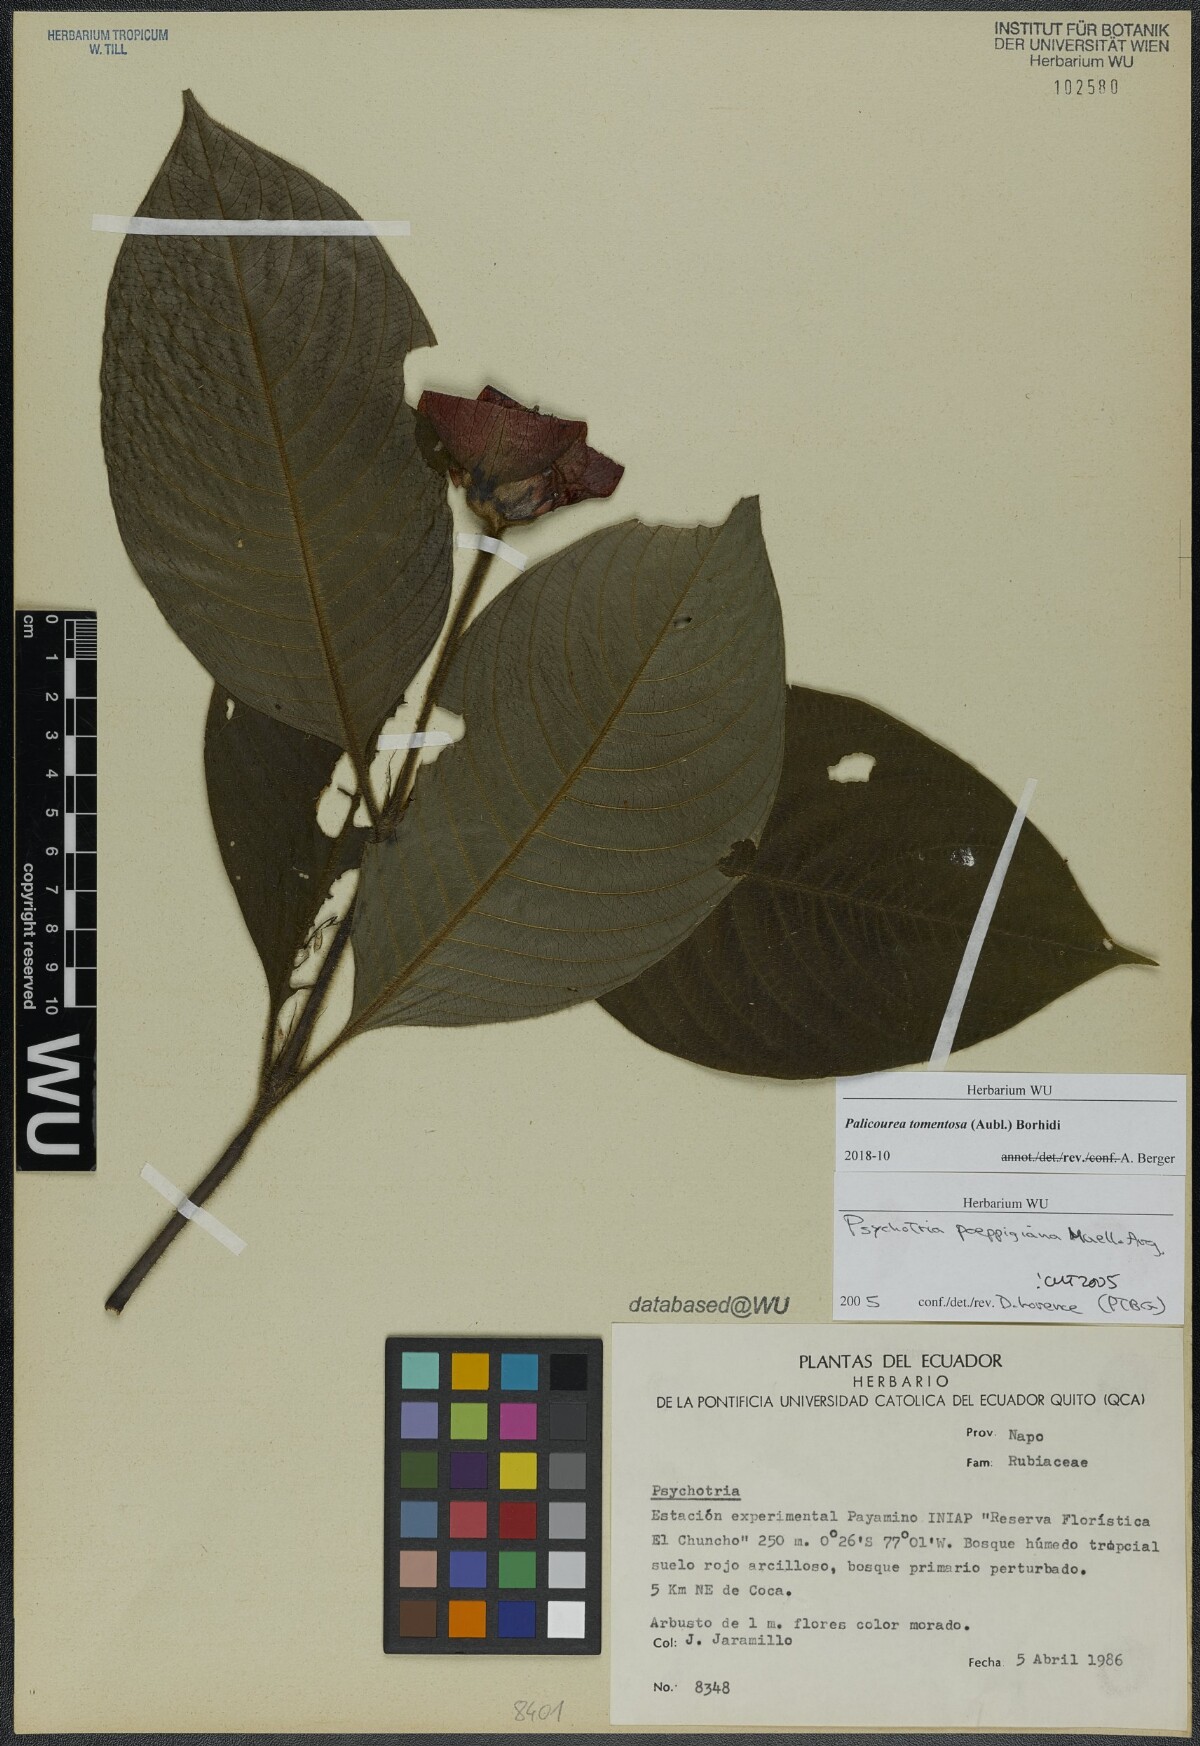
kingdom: Plantae
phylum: Tracheophyta
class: Magnoliopsida
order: Gentianales
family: Rubiaceae
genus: Palicourea
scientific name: Palicourea tomentosa
